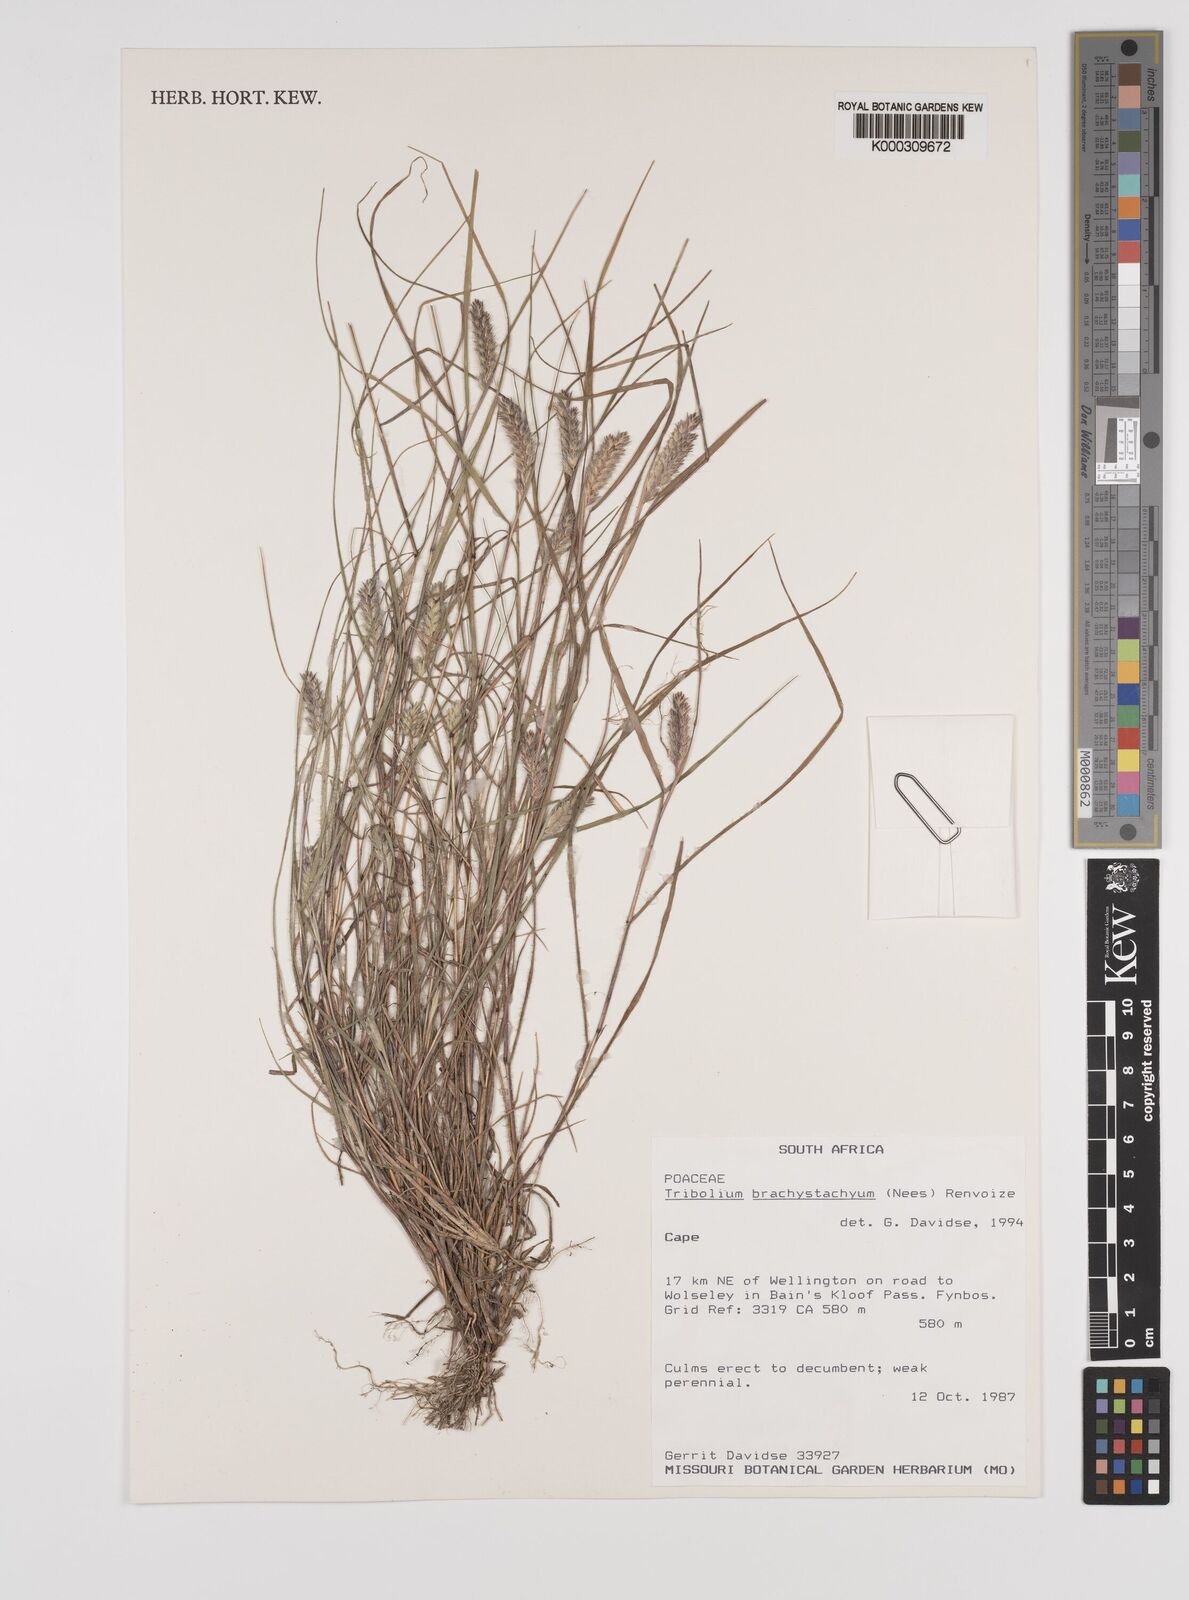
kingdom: Plantae
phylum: Tracheophyta
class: Liliopsida
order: Poales
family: Poaceae
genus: Tribolium
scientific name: Tribolium brachystachyum
